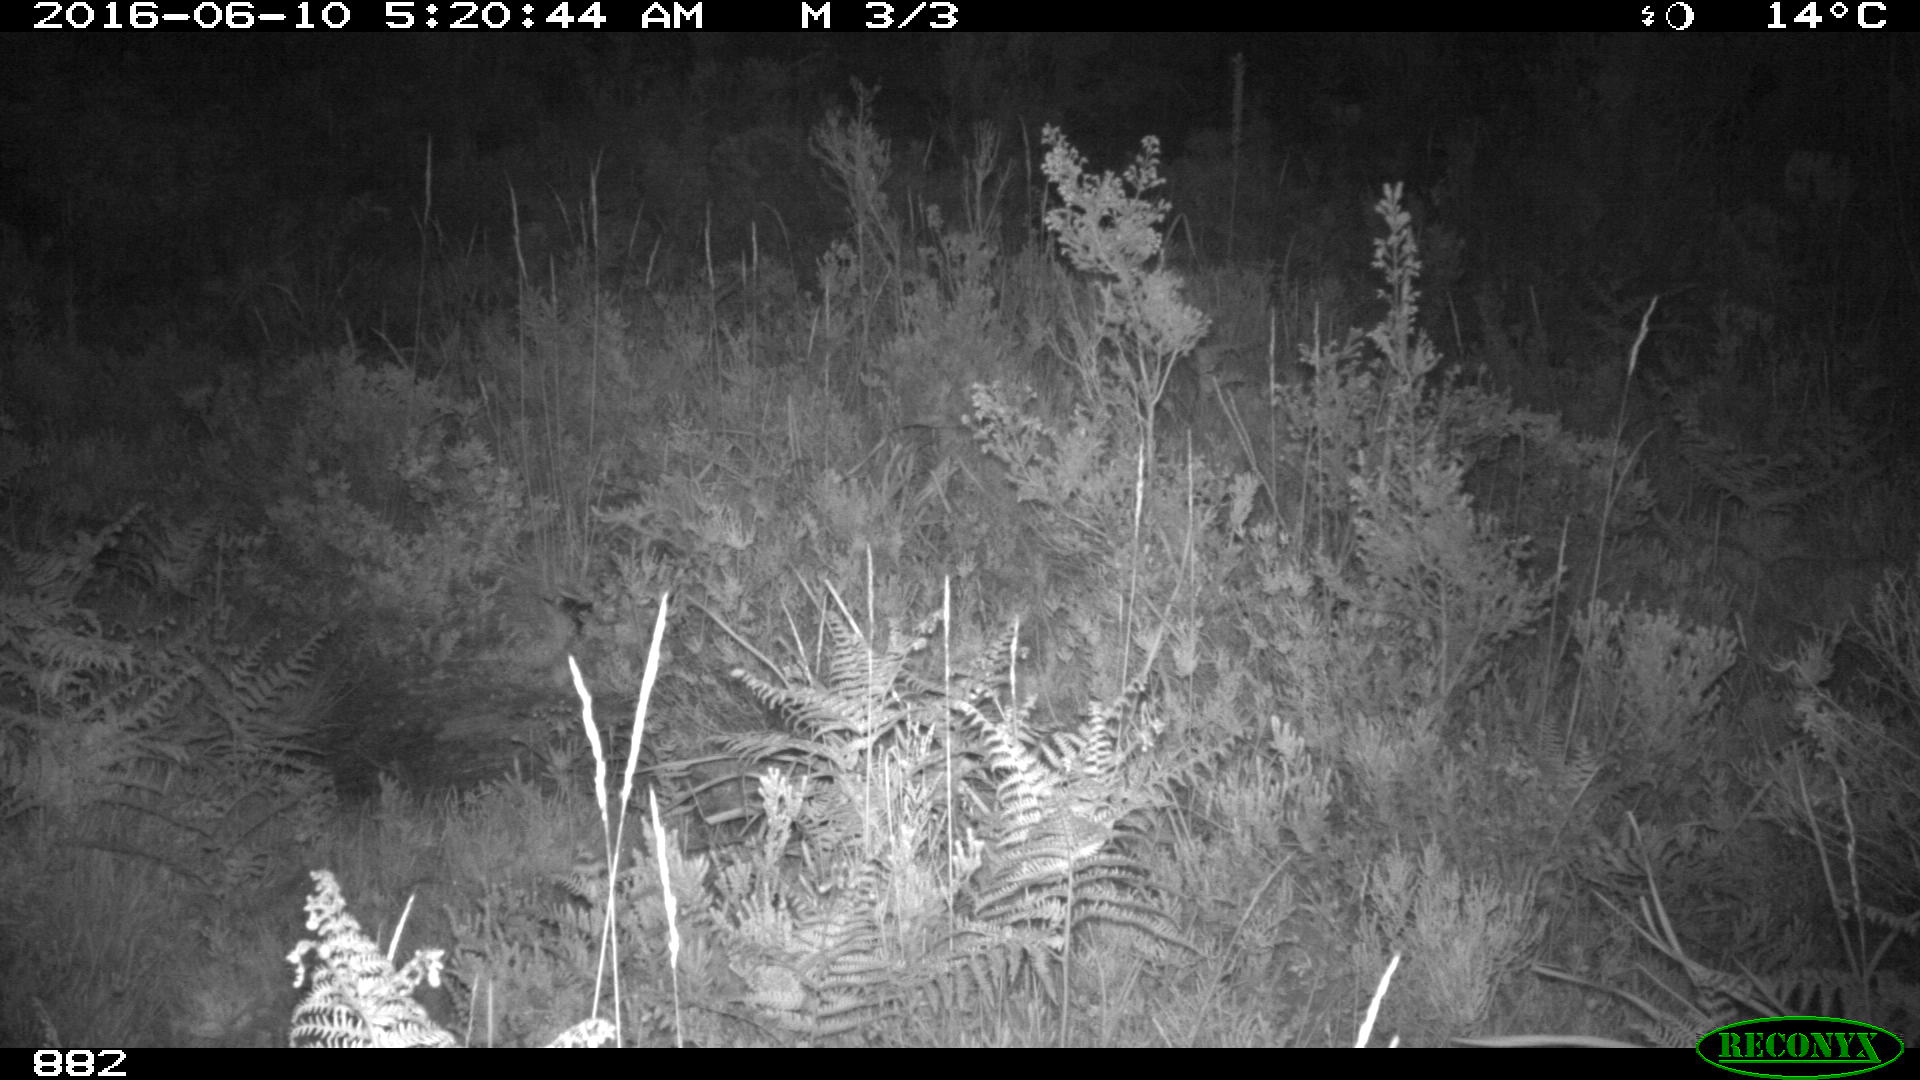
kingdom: Animalia
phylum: Chordata
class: Mammalia
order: Artiodactyla
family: Cervidae
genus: Capreolus
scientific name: Capreolus capreolus
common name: Western roe deer
